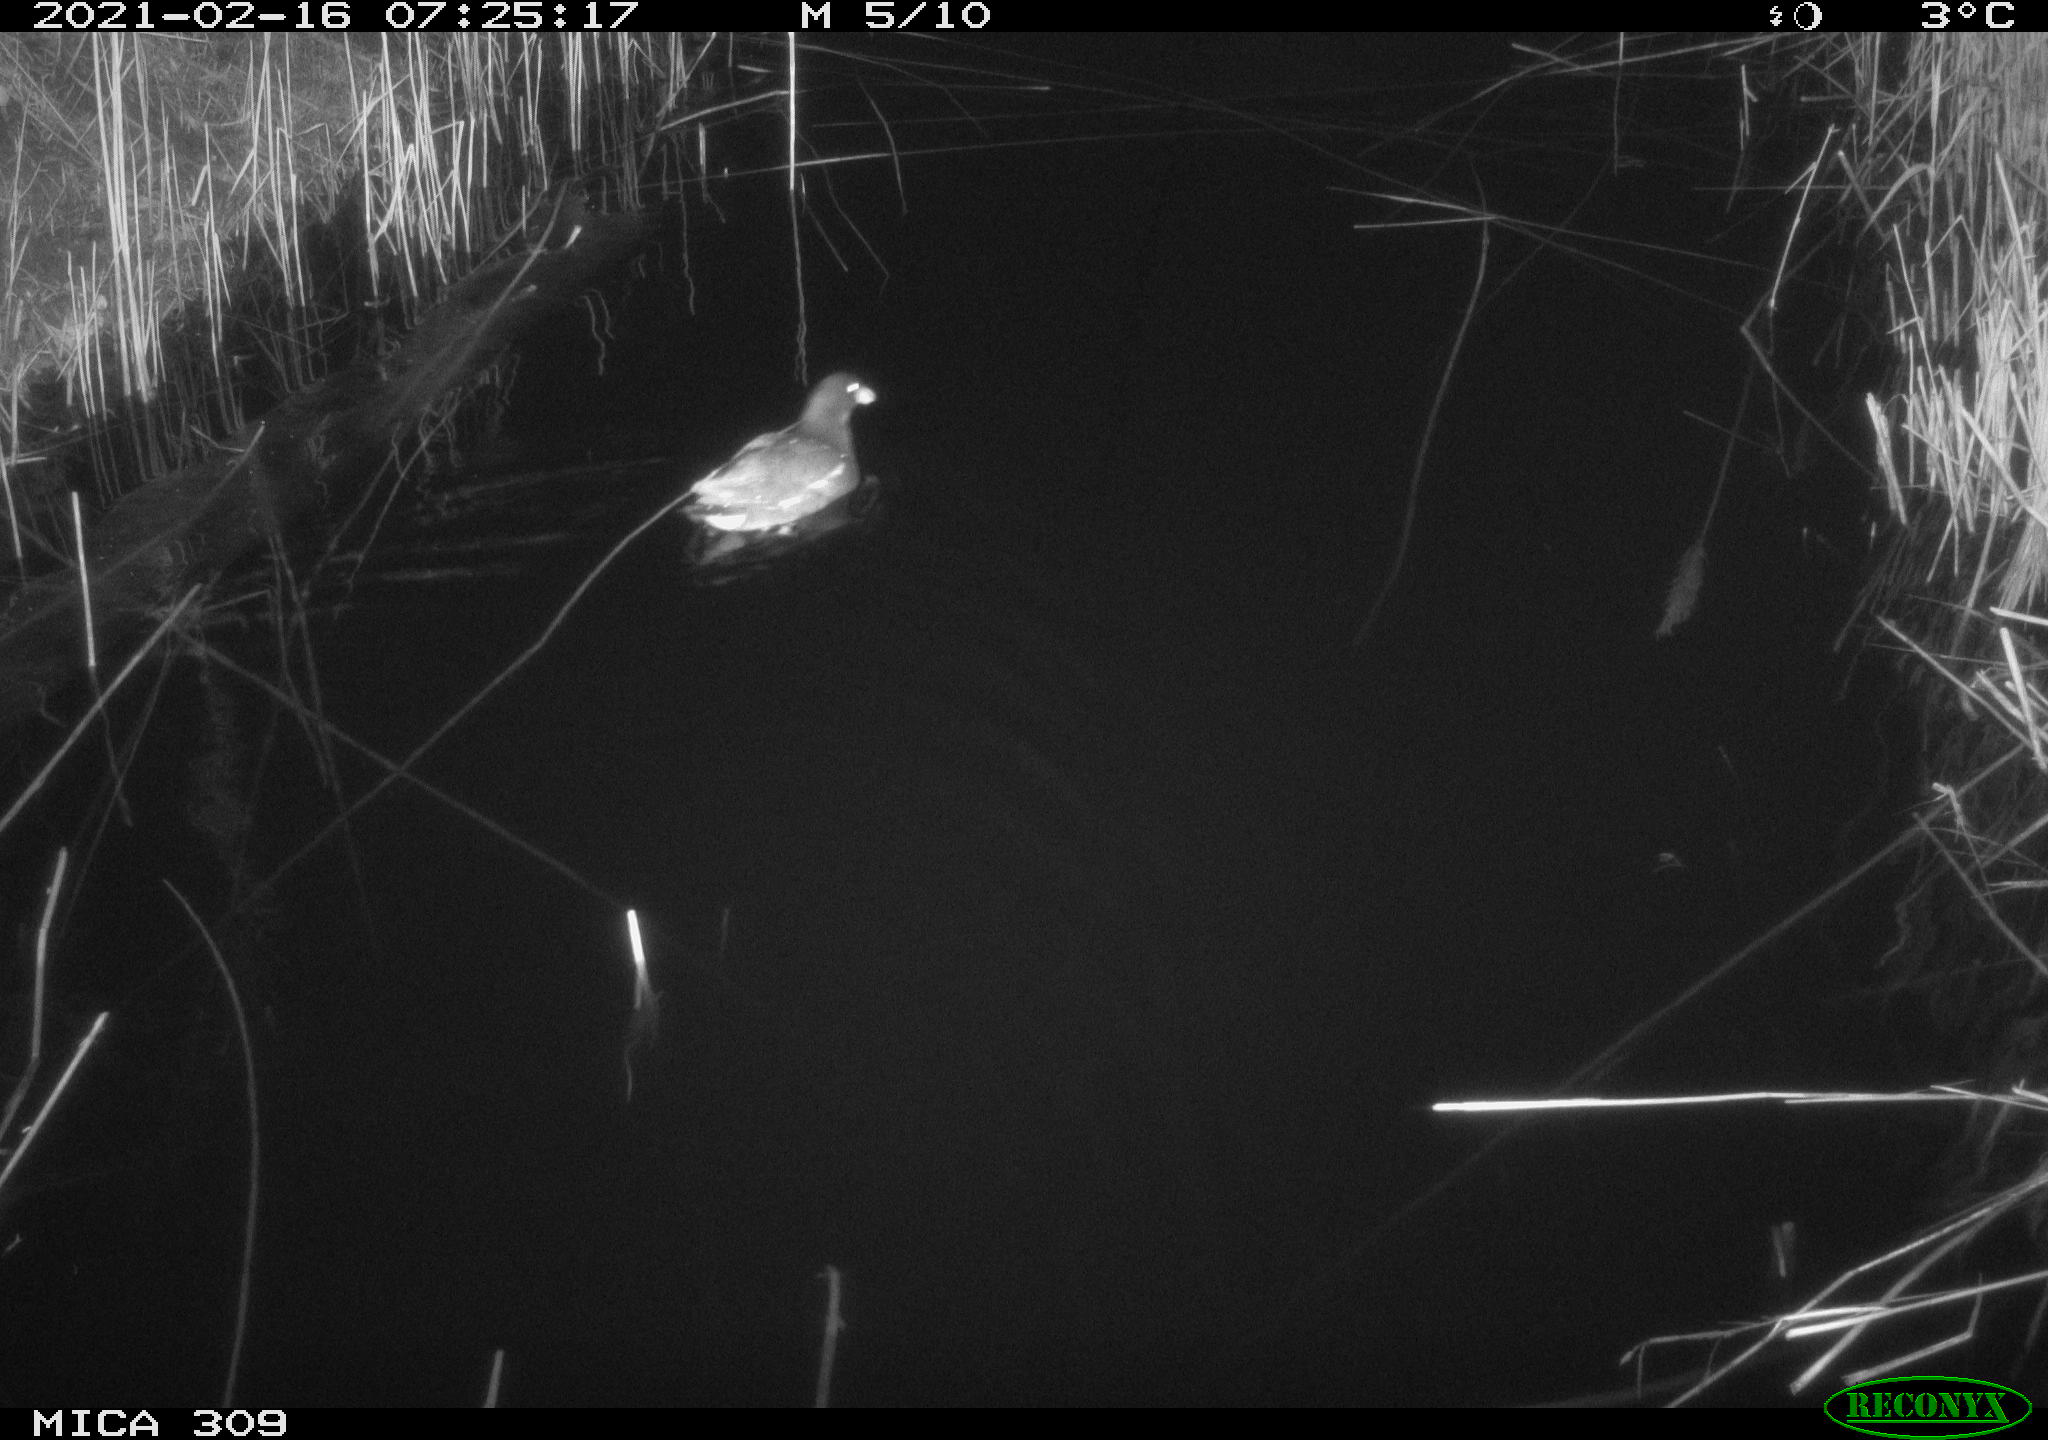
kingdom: Animalia
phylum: Chordata
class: Aves
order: Gruiformes
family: Rallidae
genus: Gallinula
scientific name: Gallinula chloropus
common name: Common moorhen
